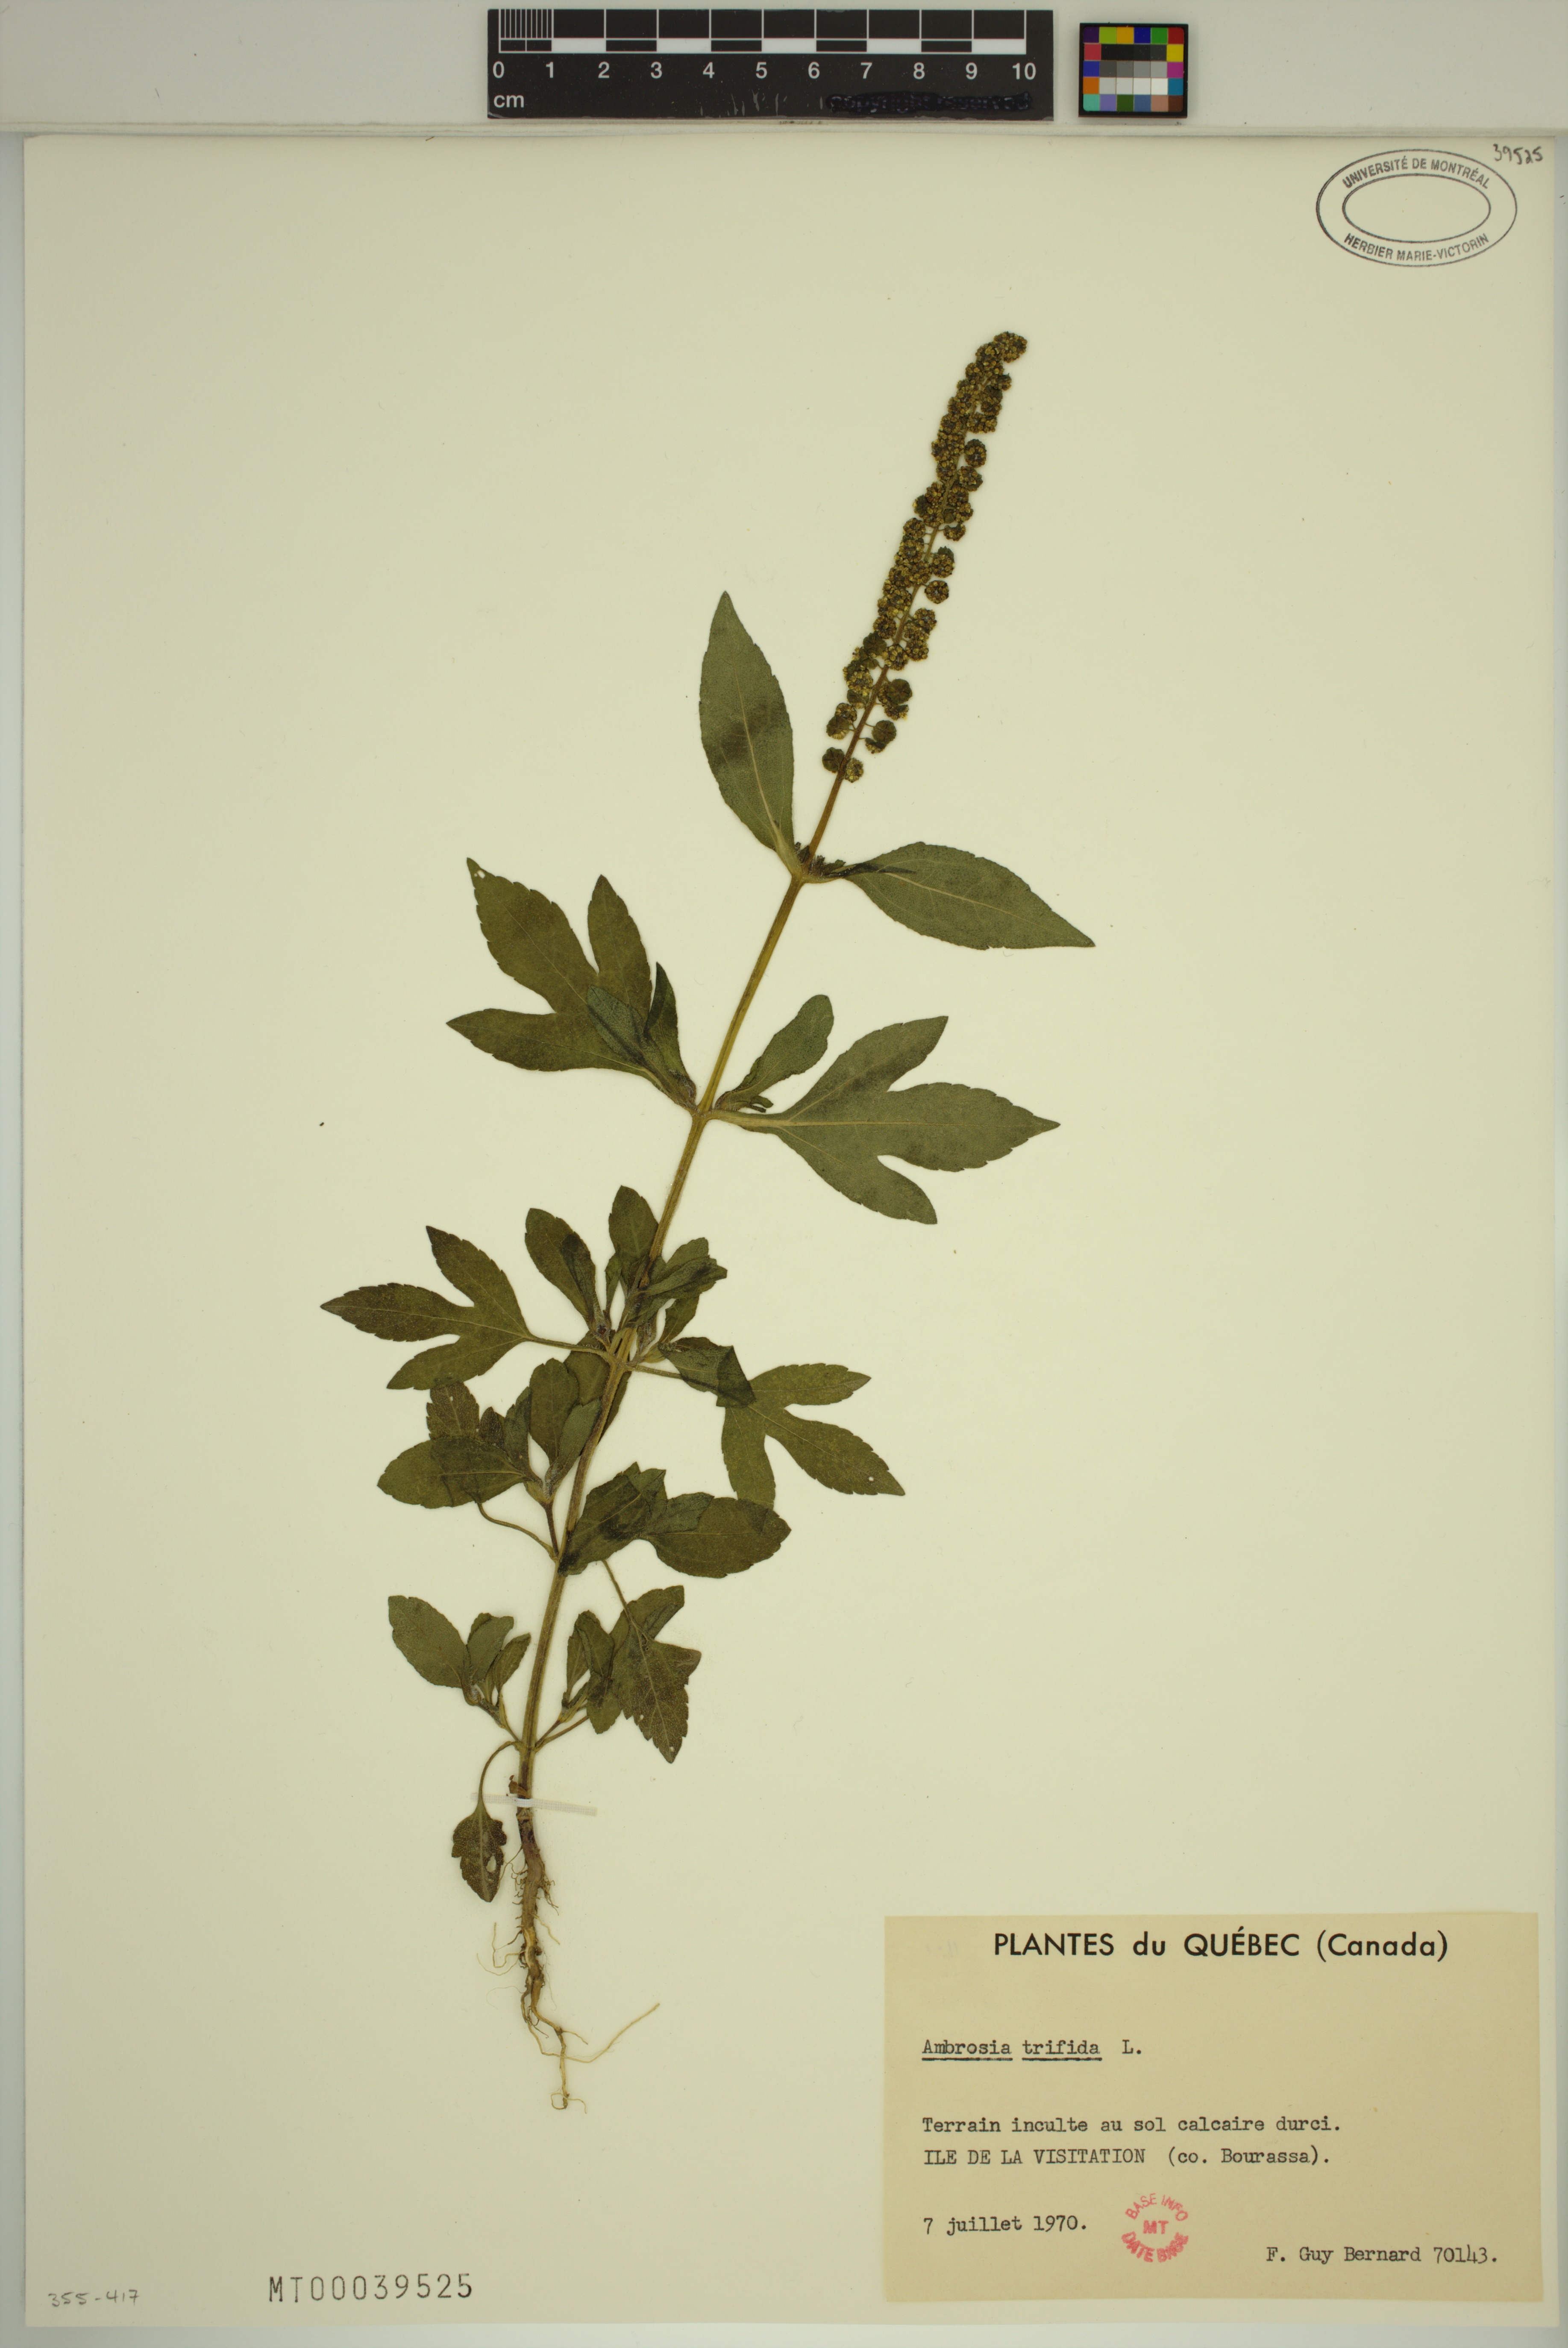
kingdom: Plantae
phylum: Tracheophyta
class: Magnoliopsida
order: Asterales
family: Asteraceae
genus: Ambrosia
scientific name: Ambrosia trifida
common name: Giant ragweed
